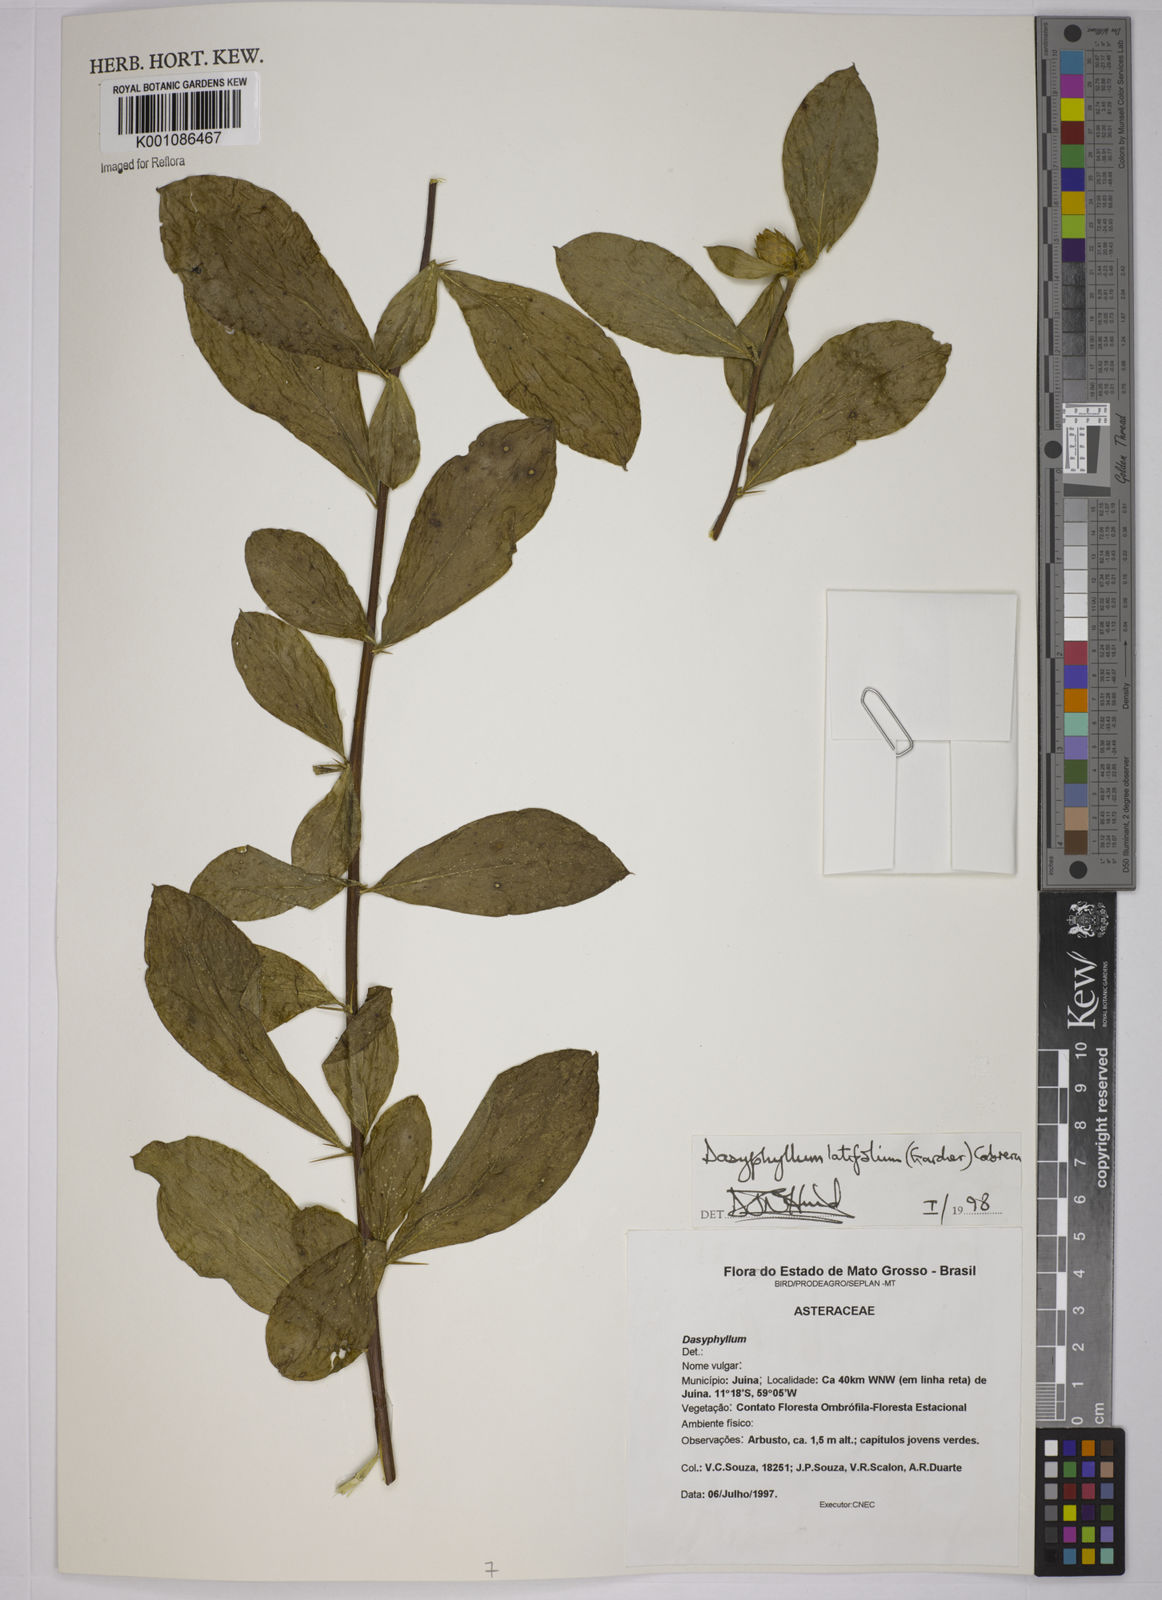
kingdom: Plantae
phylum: Tracheophyta
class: Magnoliopsida
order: Asterales
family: Asteraceae
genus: Dasyphyllum
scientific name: Dasyphyllum sprengelianum
